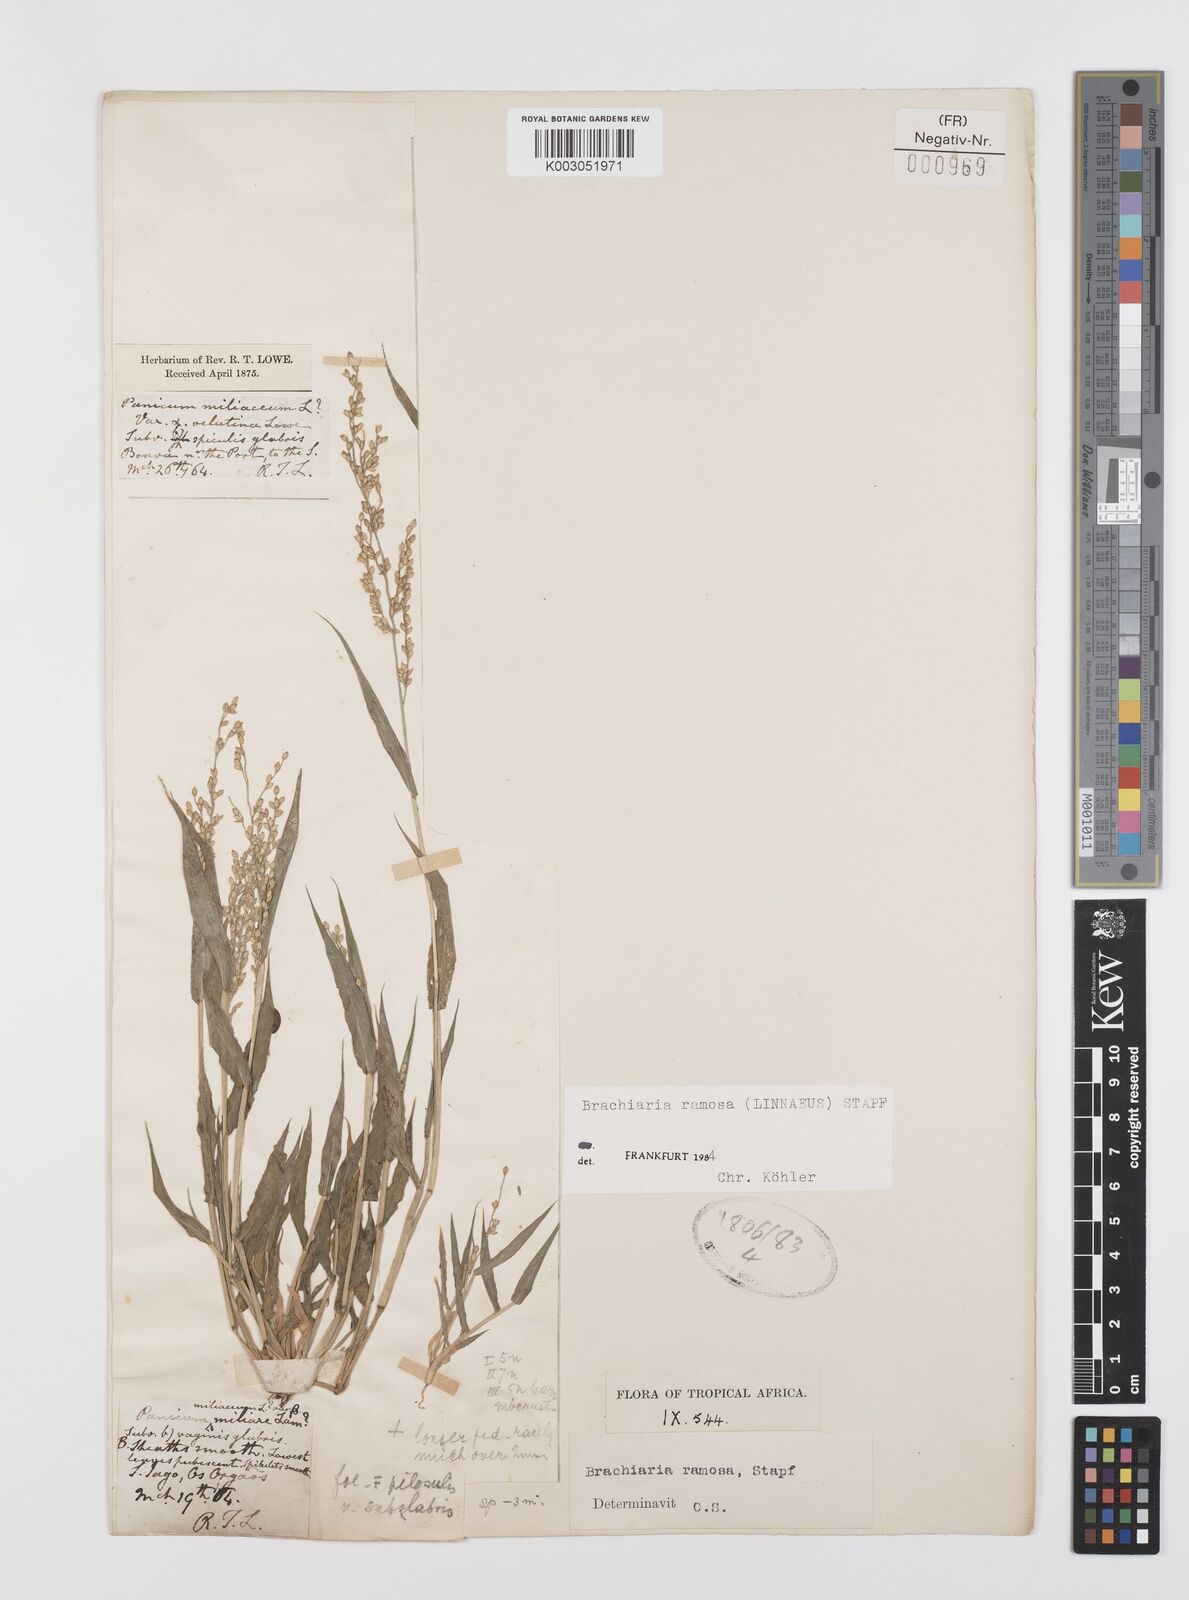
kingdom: Plantae
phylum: Tracheophyta
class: Liliopsida
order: Poales
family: Poaceae
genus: Urochloa
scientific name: Urochloa ramosa
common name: Browntop millet
